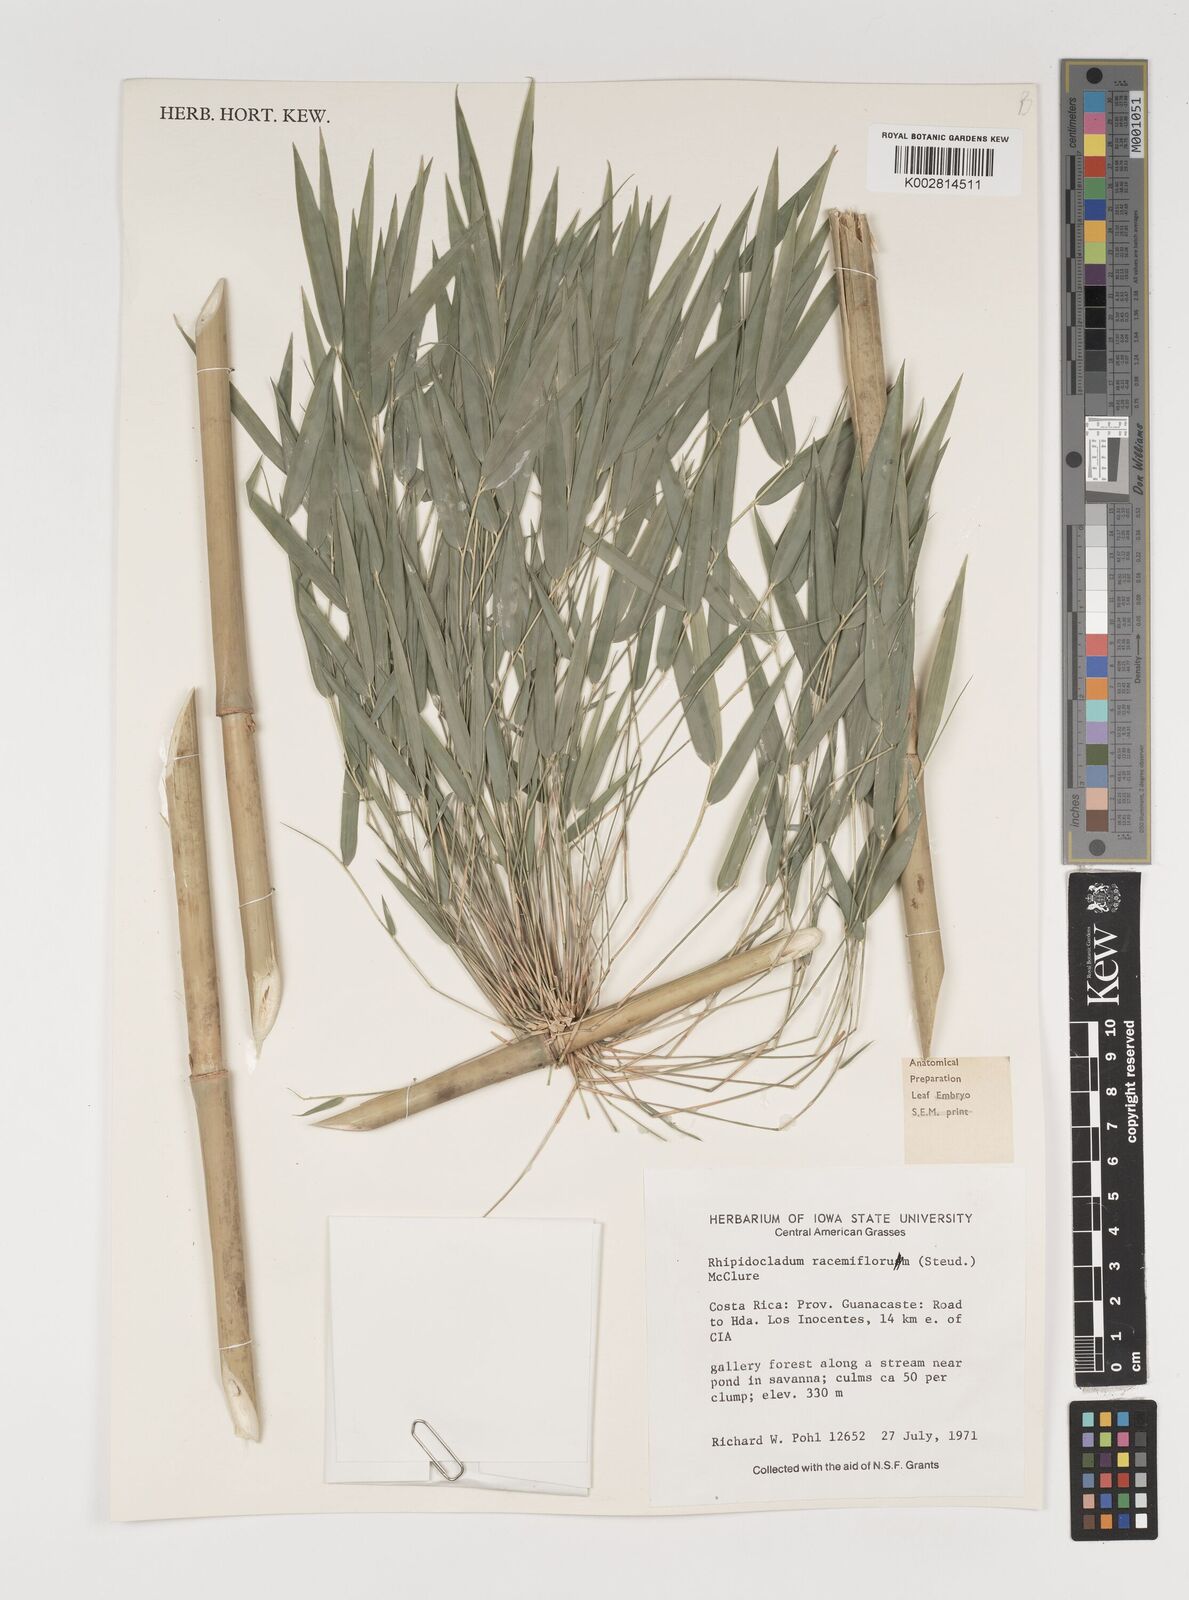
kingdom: Plantae
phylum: Tracheophyta
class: Liliopsida
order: Poales
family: Poaceae
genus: Rhipidocladum
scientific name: Rhipidocladum racemiflorum
